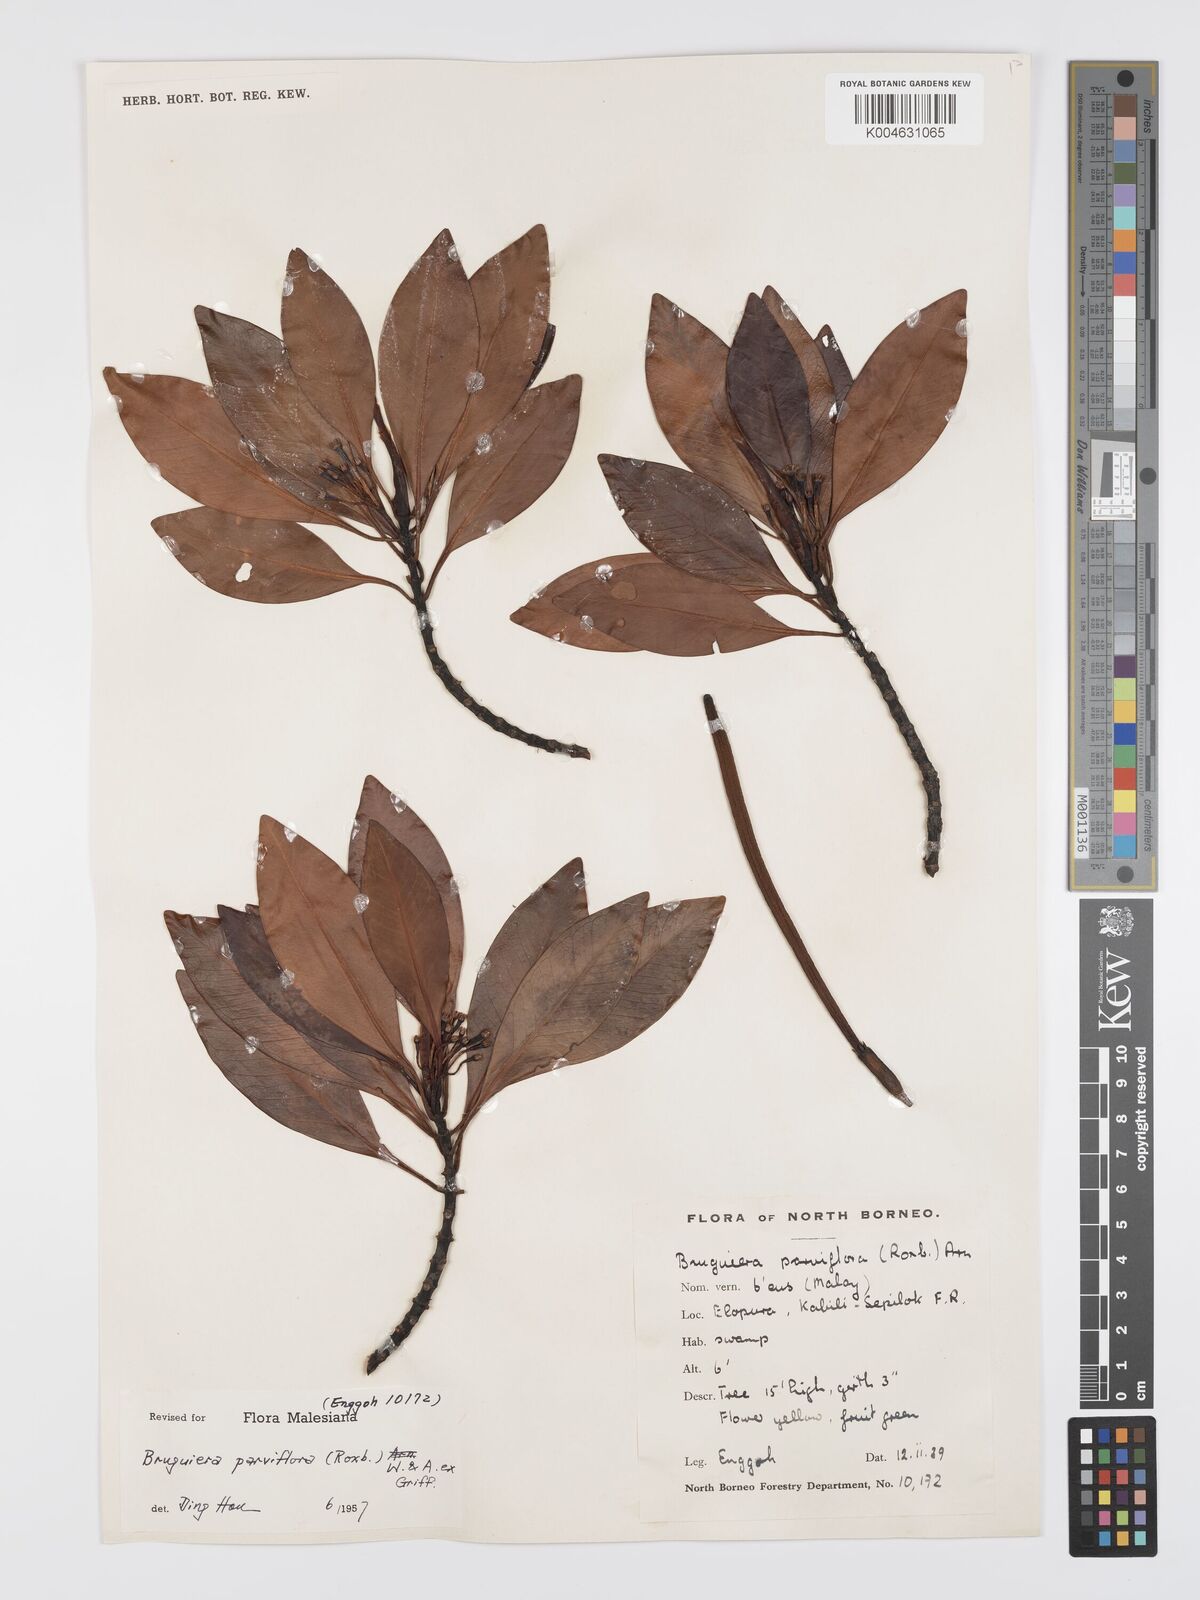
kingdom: Plantae
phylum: Tracheophyta
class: Magnoliopsida
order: Malpighiales
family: Rhizophoraceae
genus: Bruguiera
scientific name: Bruguiera parviflora
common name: Smallflower bruguiera
